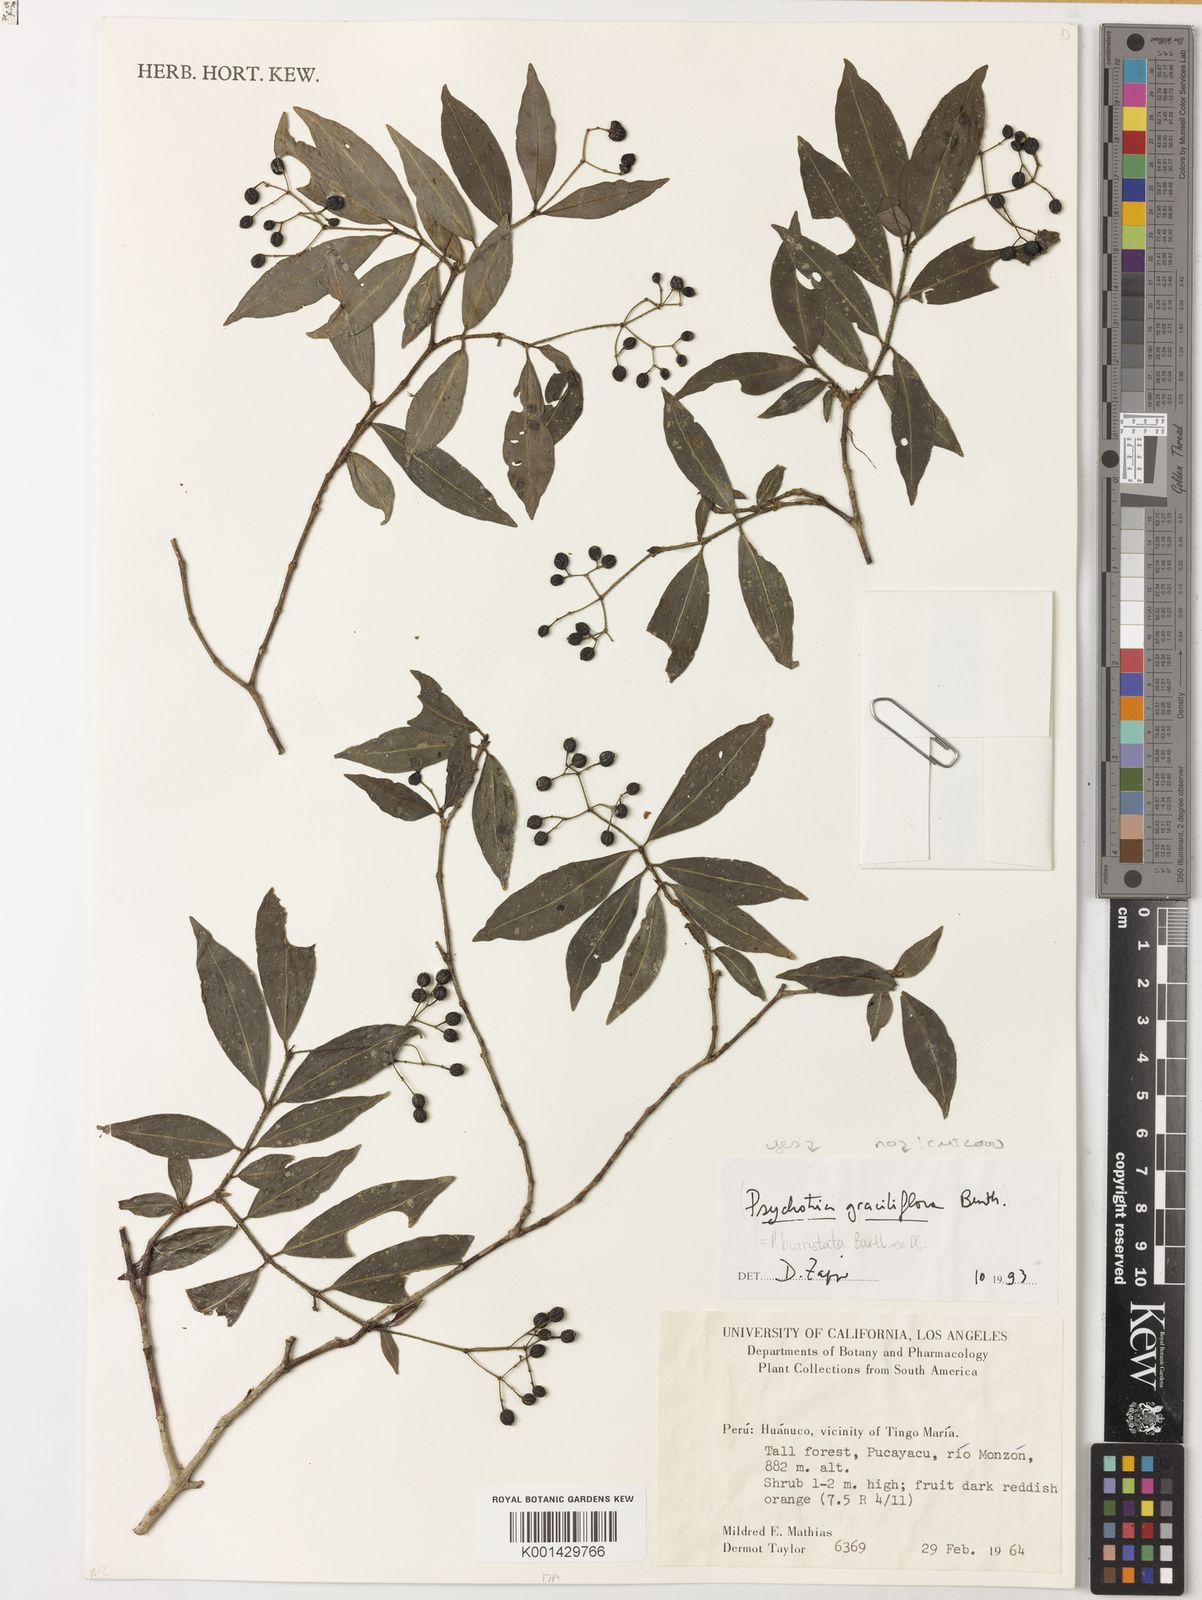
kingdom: Plantae
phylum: Tracheophyta
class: Magnoliopsida
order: Gentianales
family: Rubiaceae
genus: Psychotria
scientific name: Psychotria biaristata
